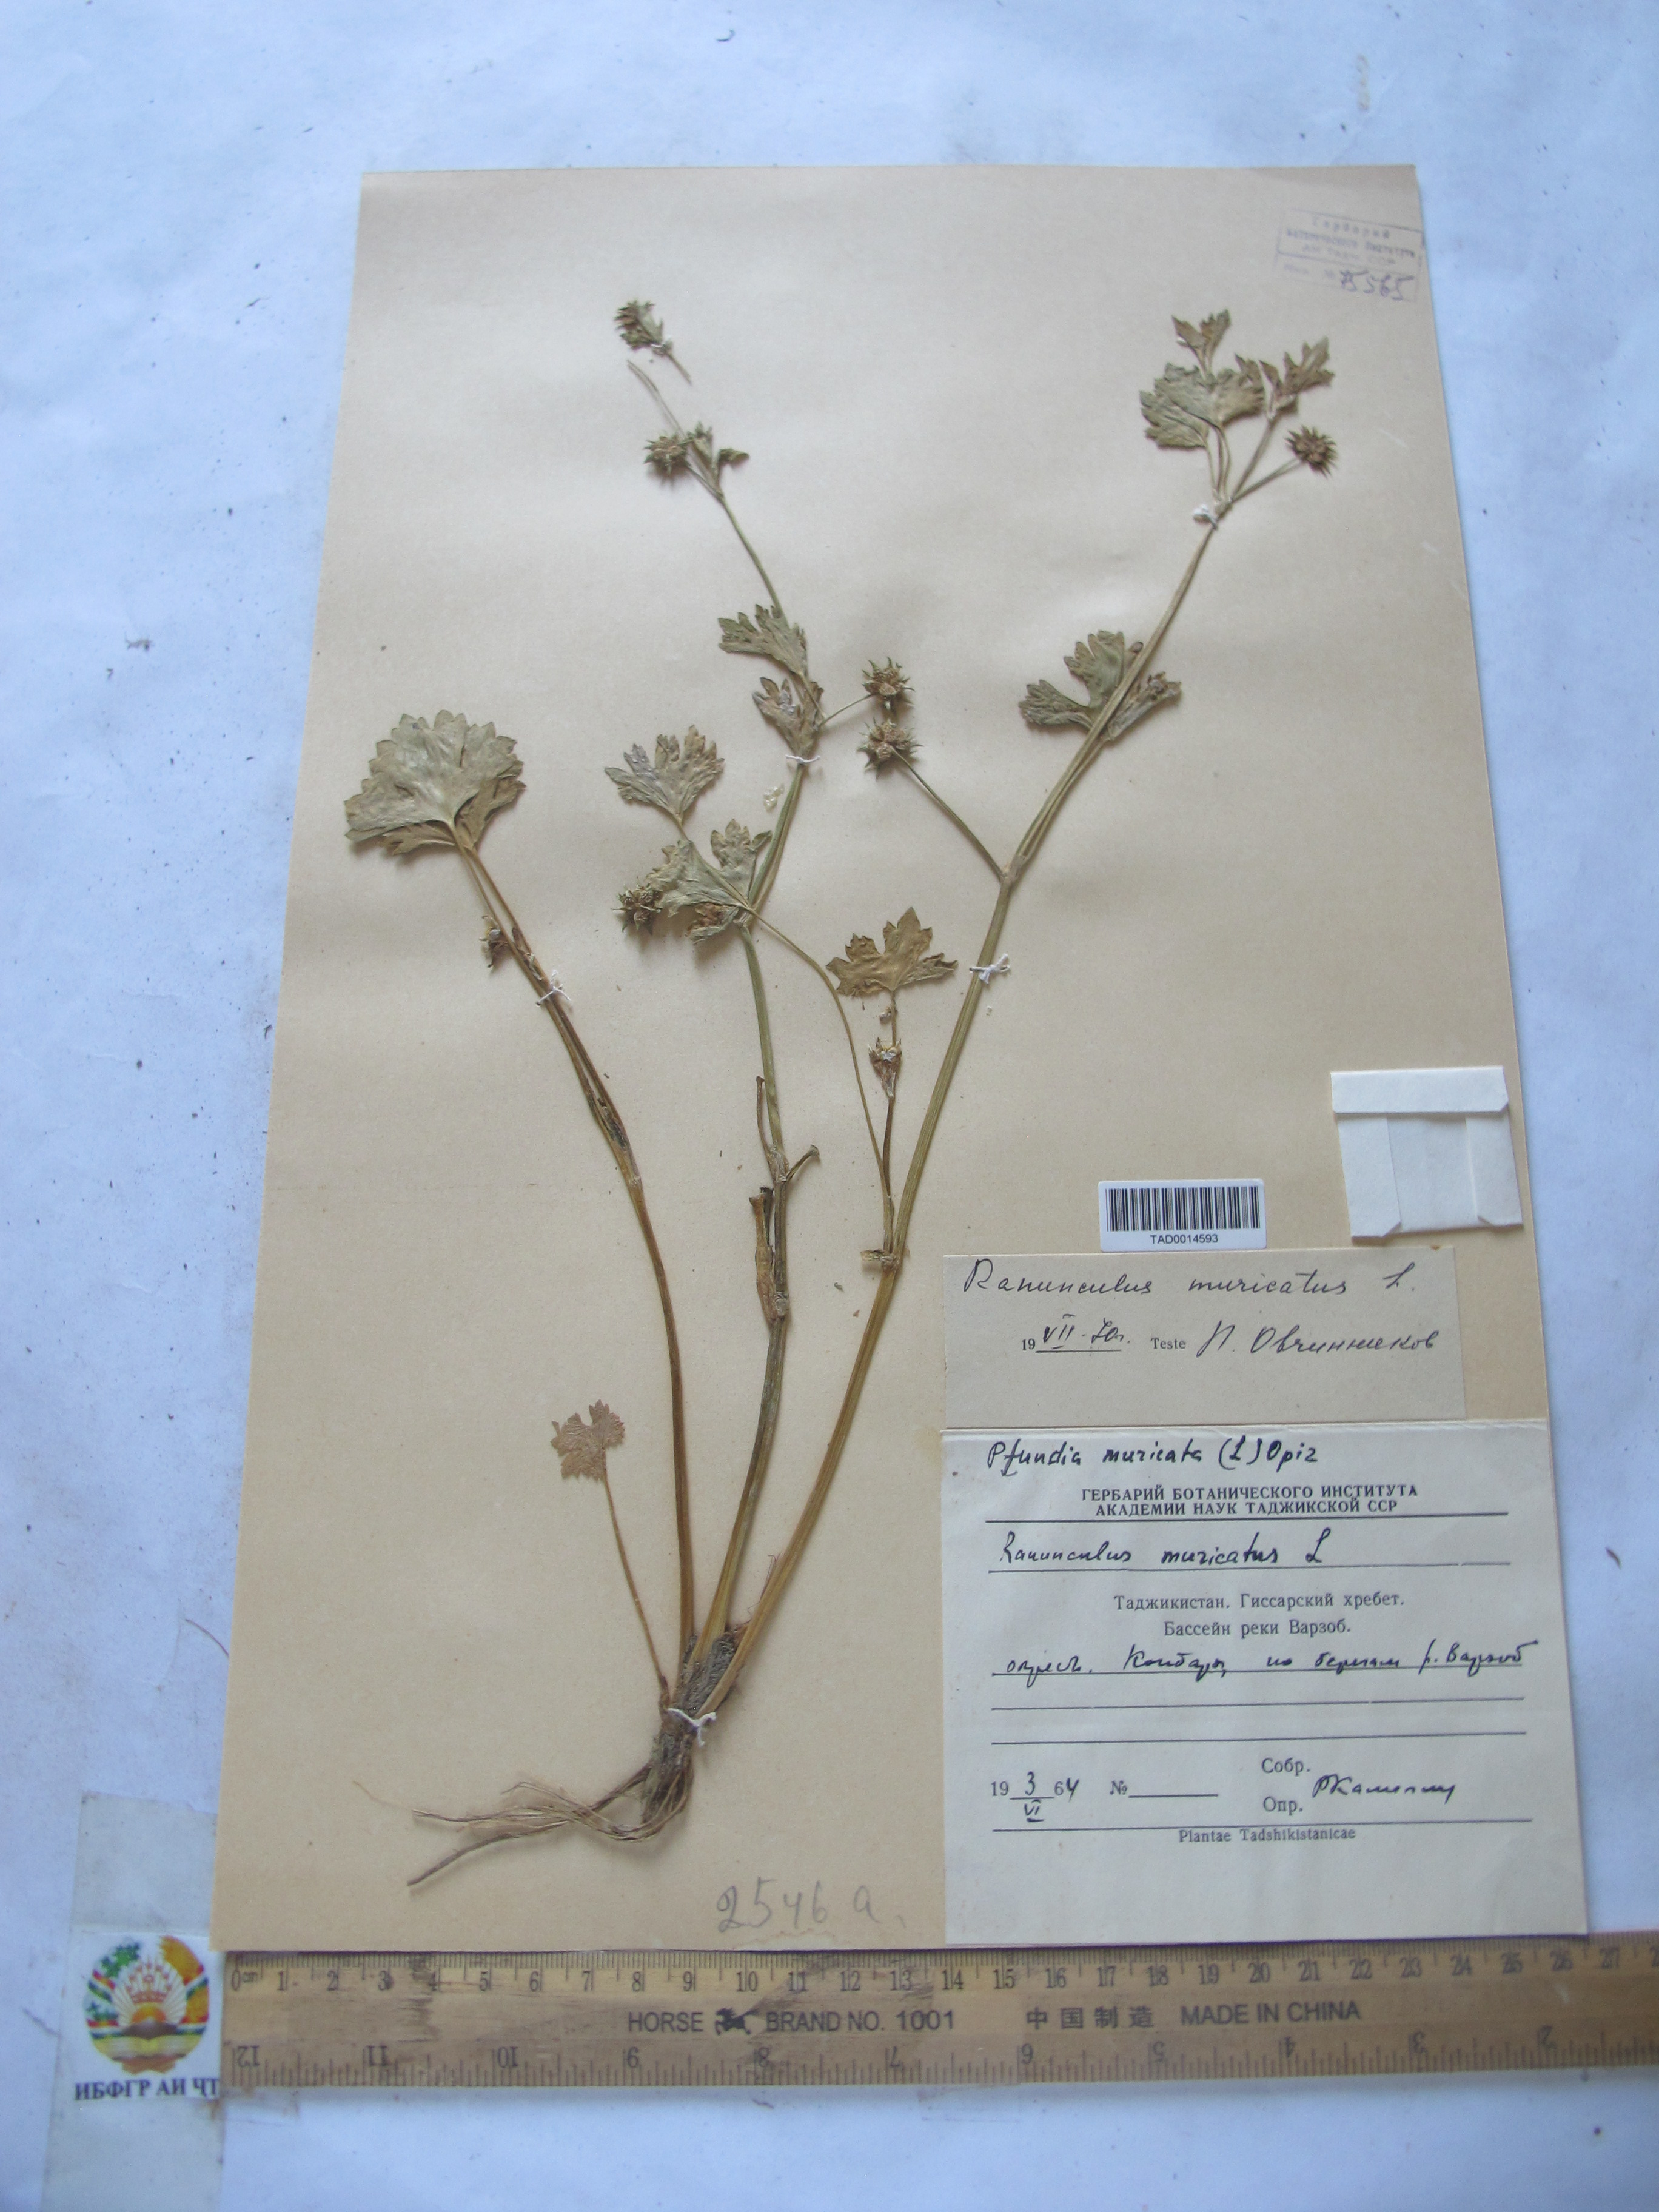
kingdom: Plantae
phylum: Tracheophyta
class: Magnoliopsida
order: Ranunculales
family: Ranunculaceae
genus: Ranunculus
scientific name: Ranunculus muricatus
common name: Rough-fruited buttercup
